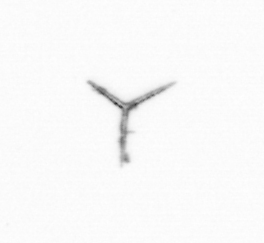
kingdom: Chromista
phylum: Ochrophyta
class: Bacillariophyceae
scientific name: Bacillariophyceae
